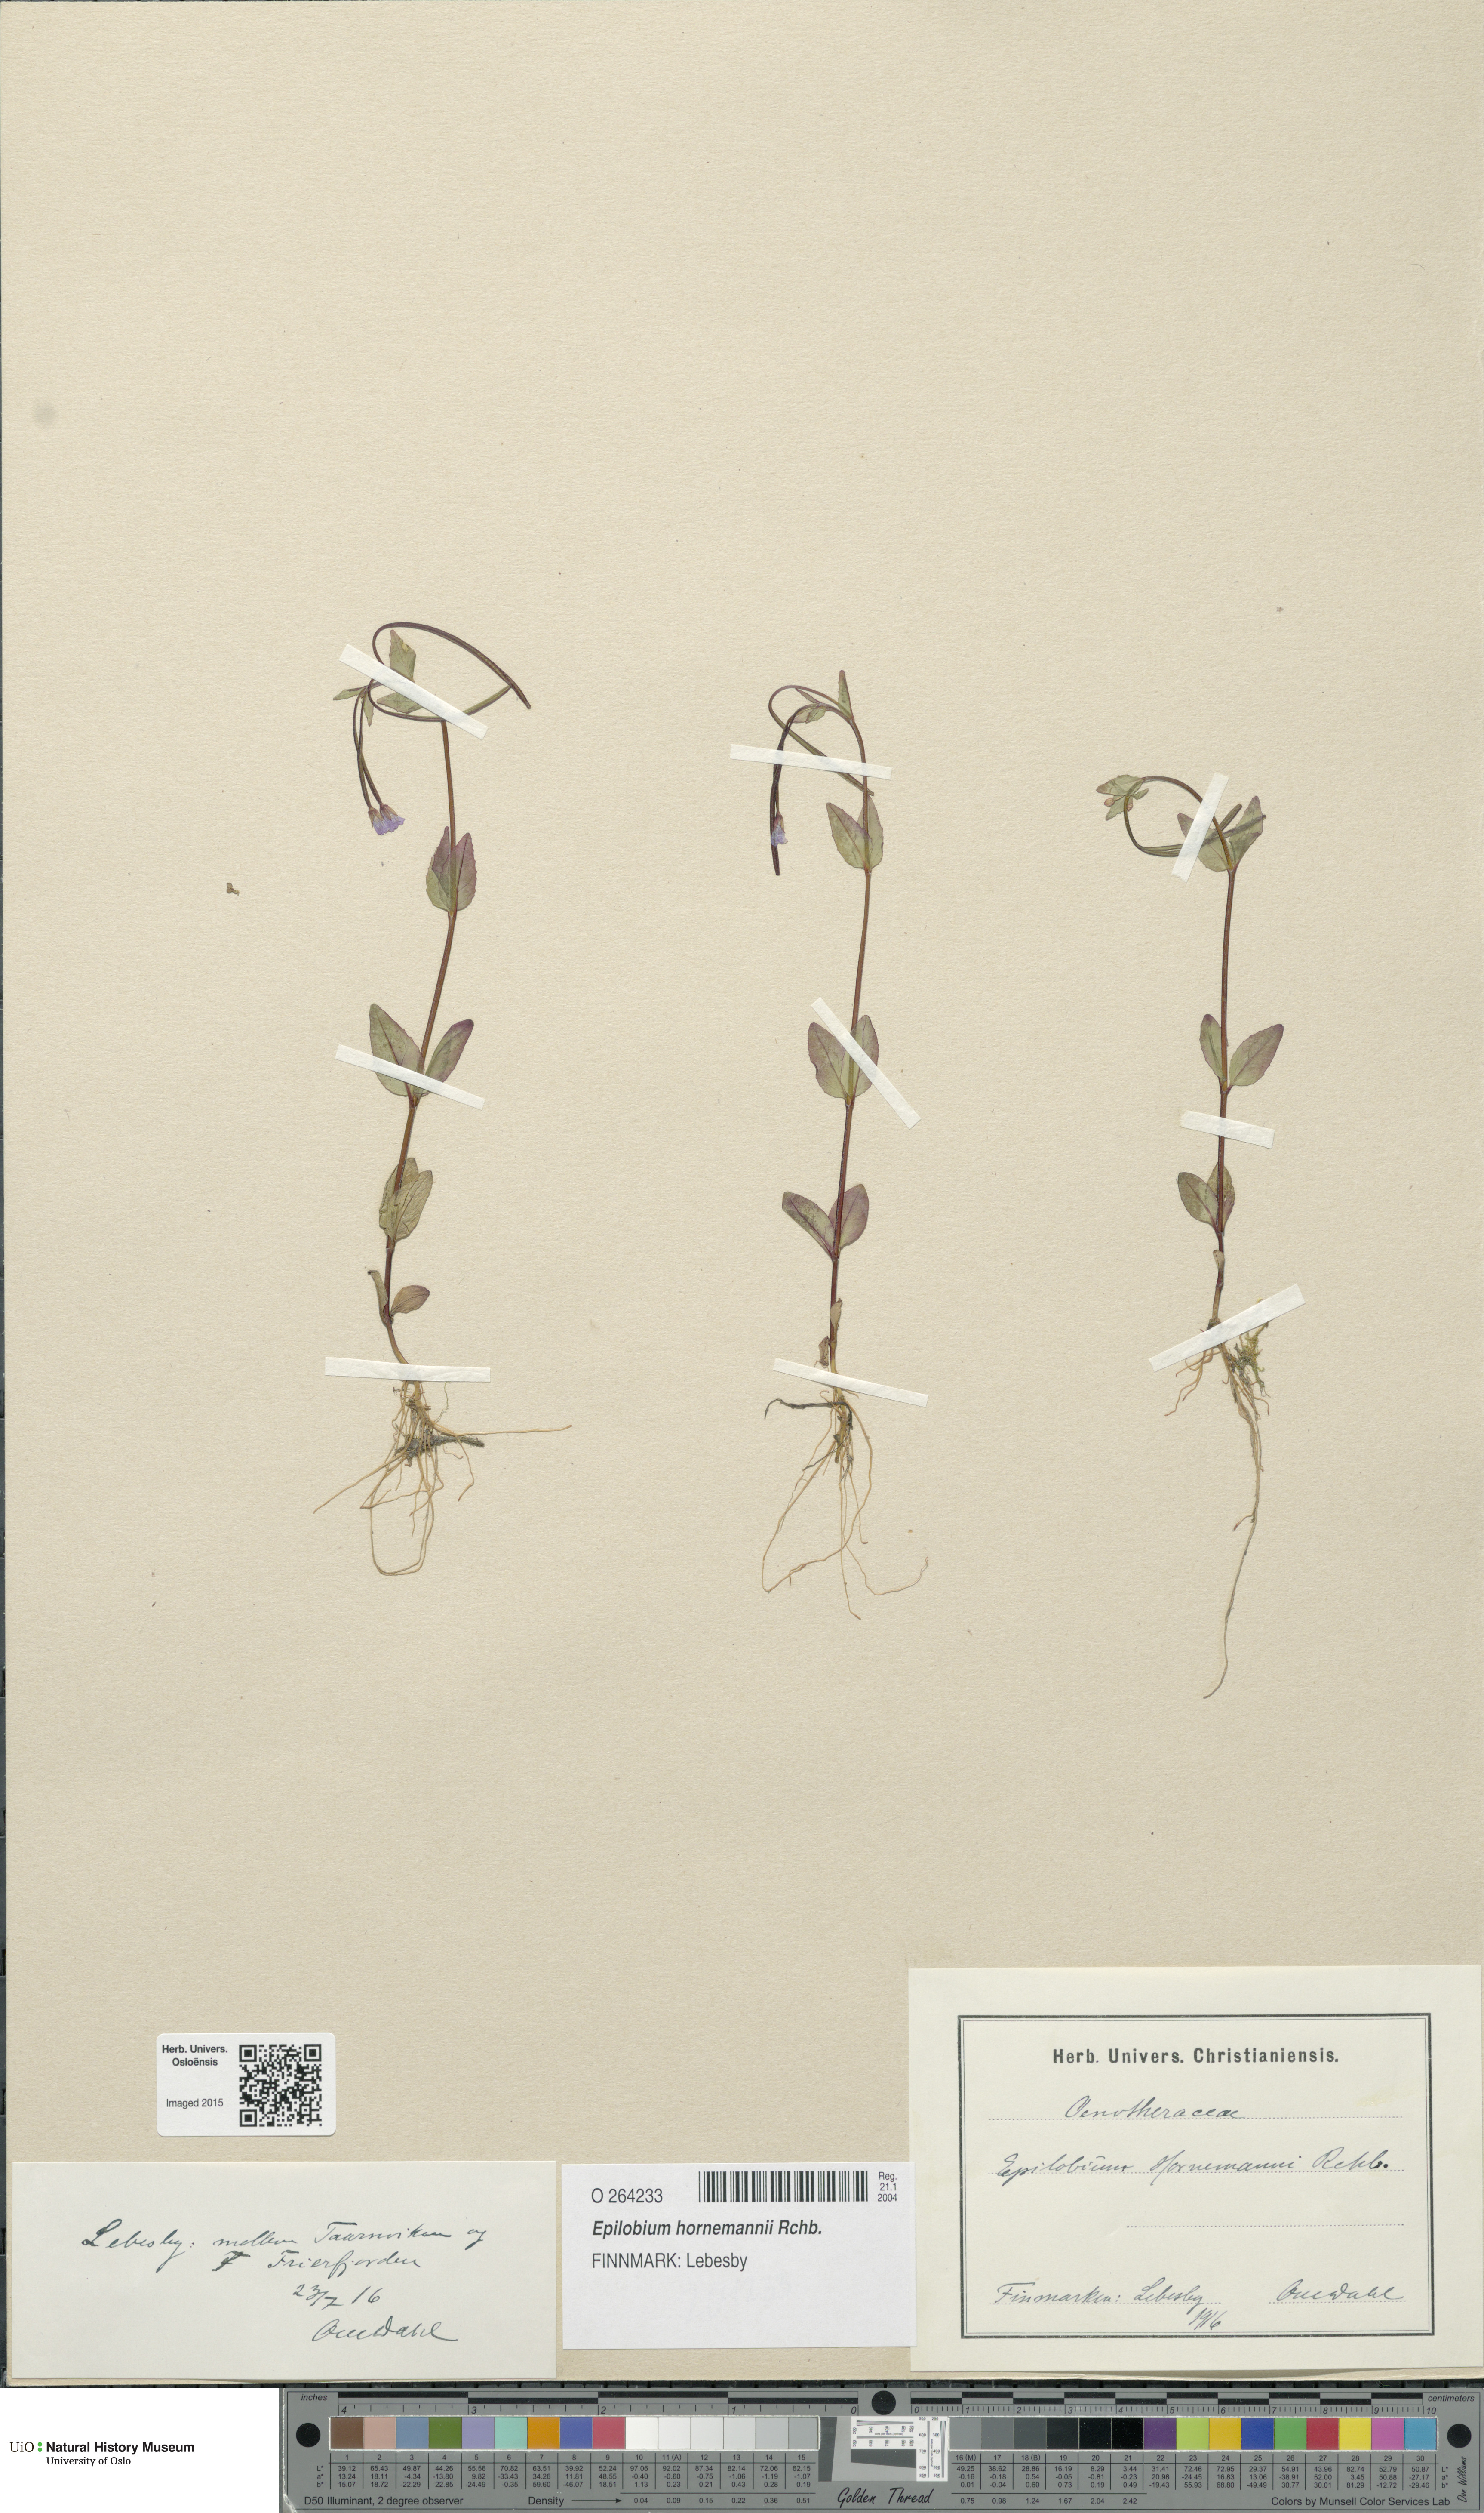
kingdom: Plantae
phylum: Tracheophyta
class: Magnoliopsida
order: Myrtales
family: Onagraceae
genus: Epilobium
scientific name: Epilobium hornemannii
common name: Hornemann's willowherb
